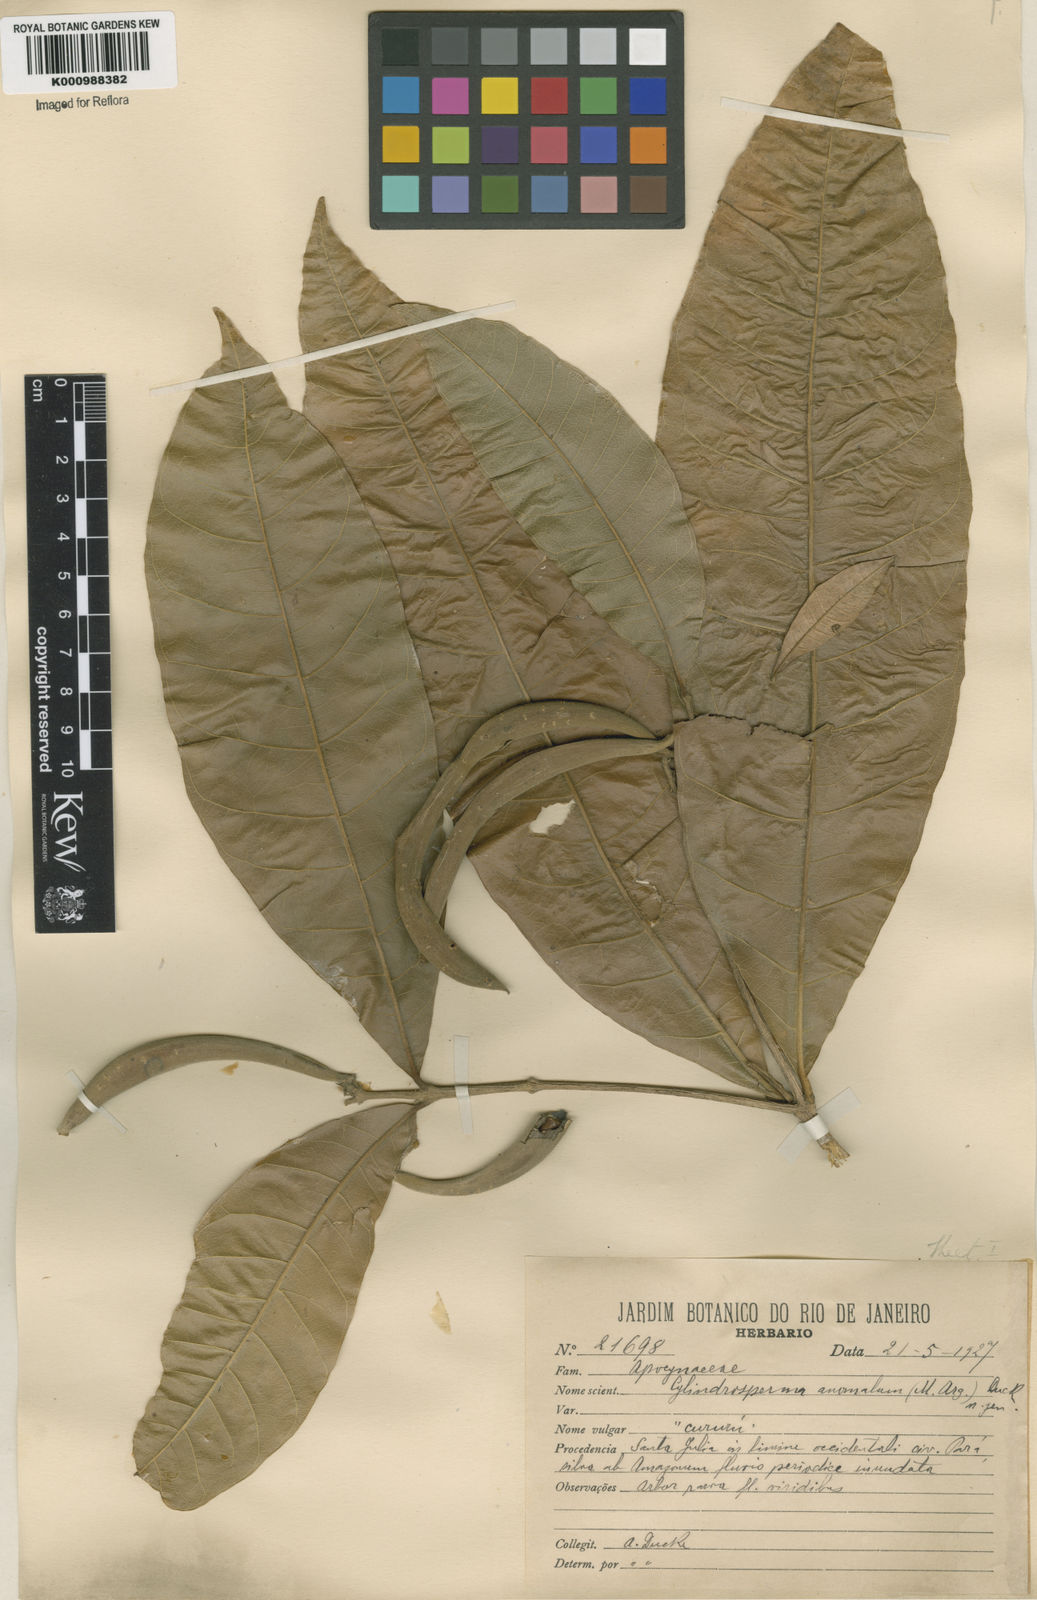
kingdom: Plantae
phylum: Tracheophyta
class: Magnoliopsida
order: Gentianales
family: Apocynaceae
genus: Microplumeria
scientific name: Microplumeria
